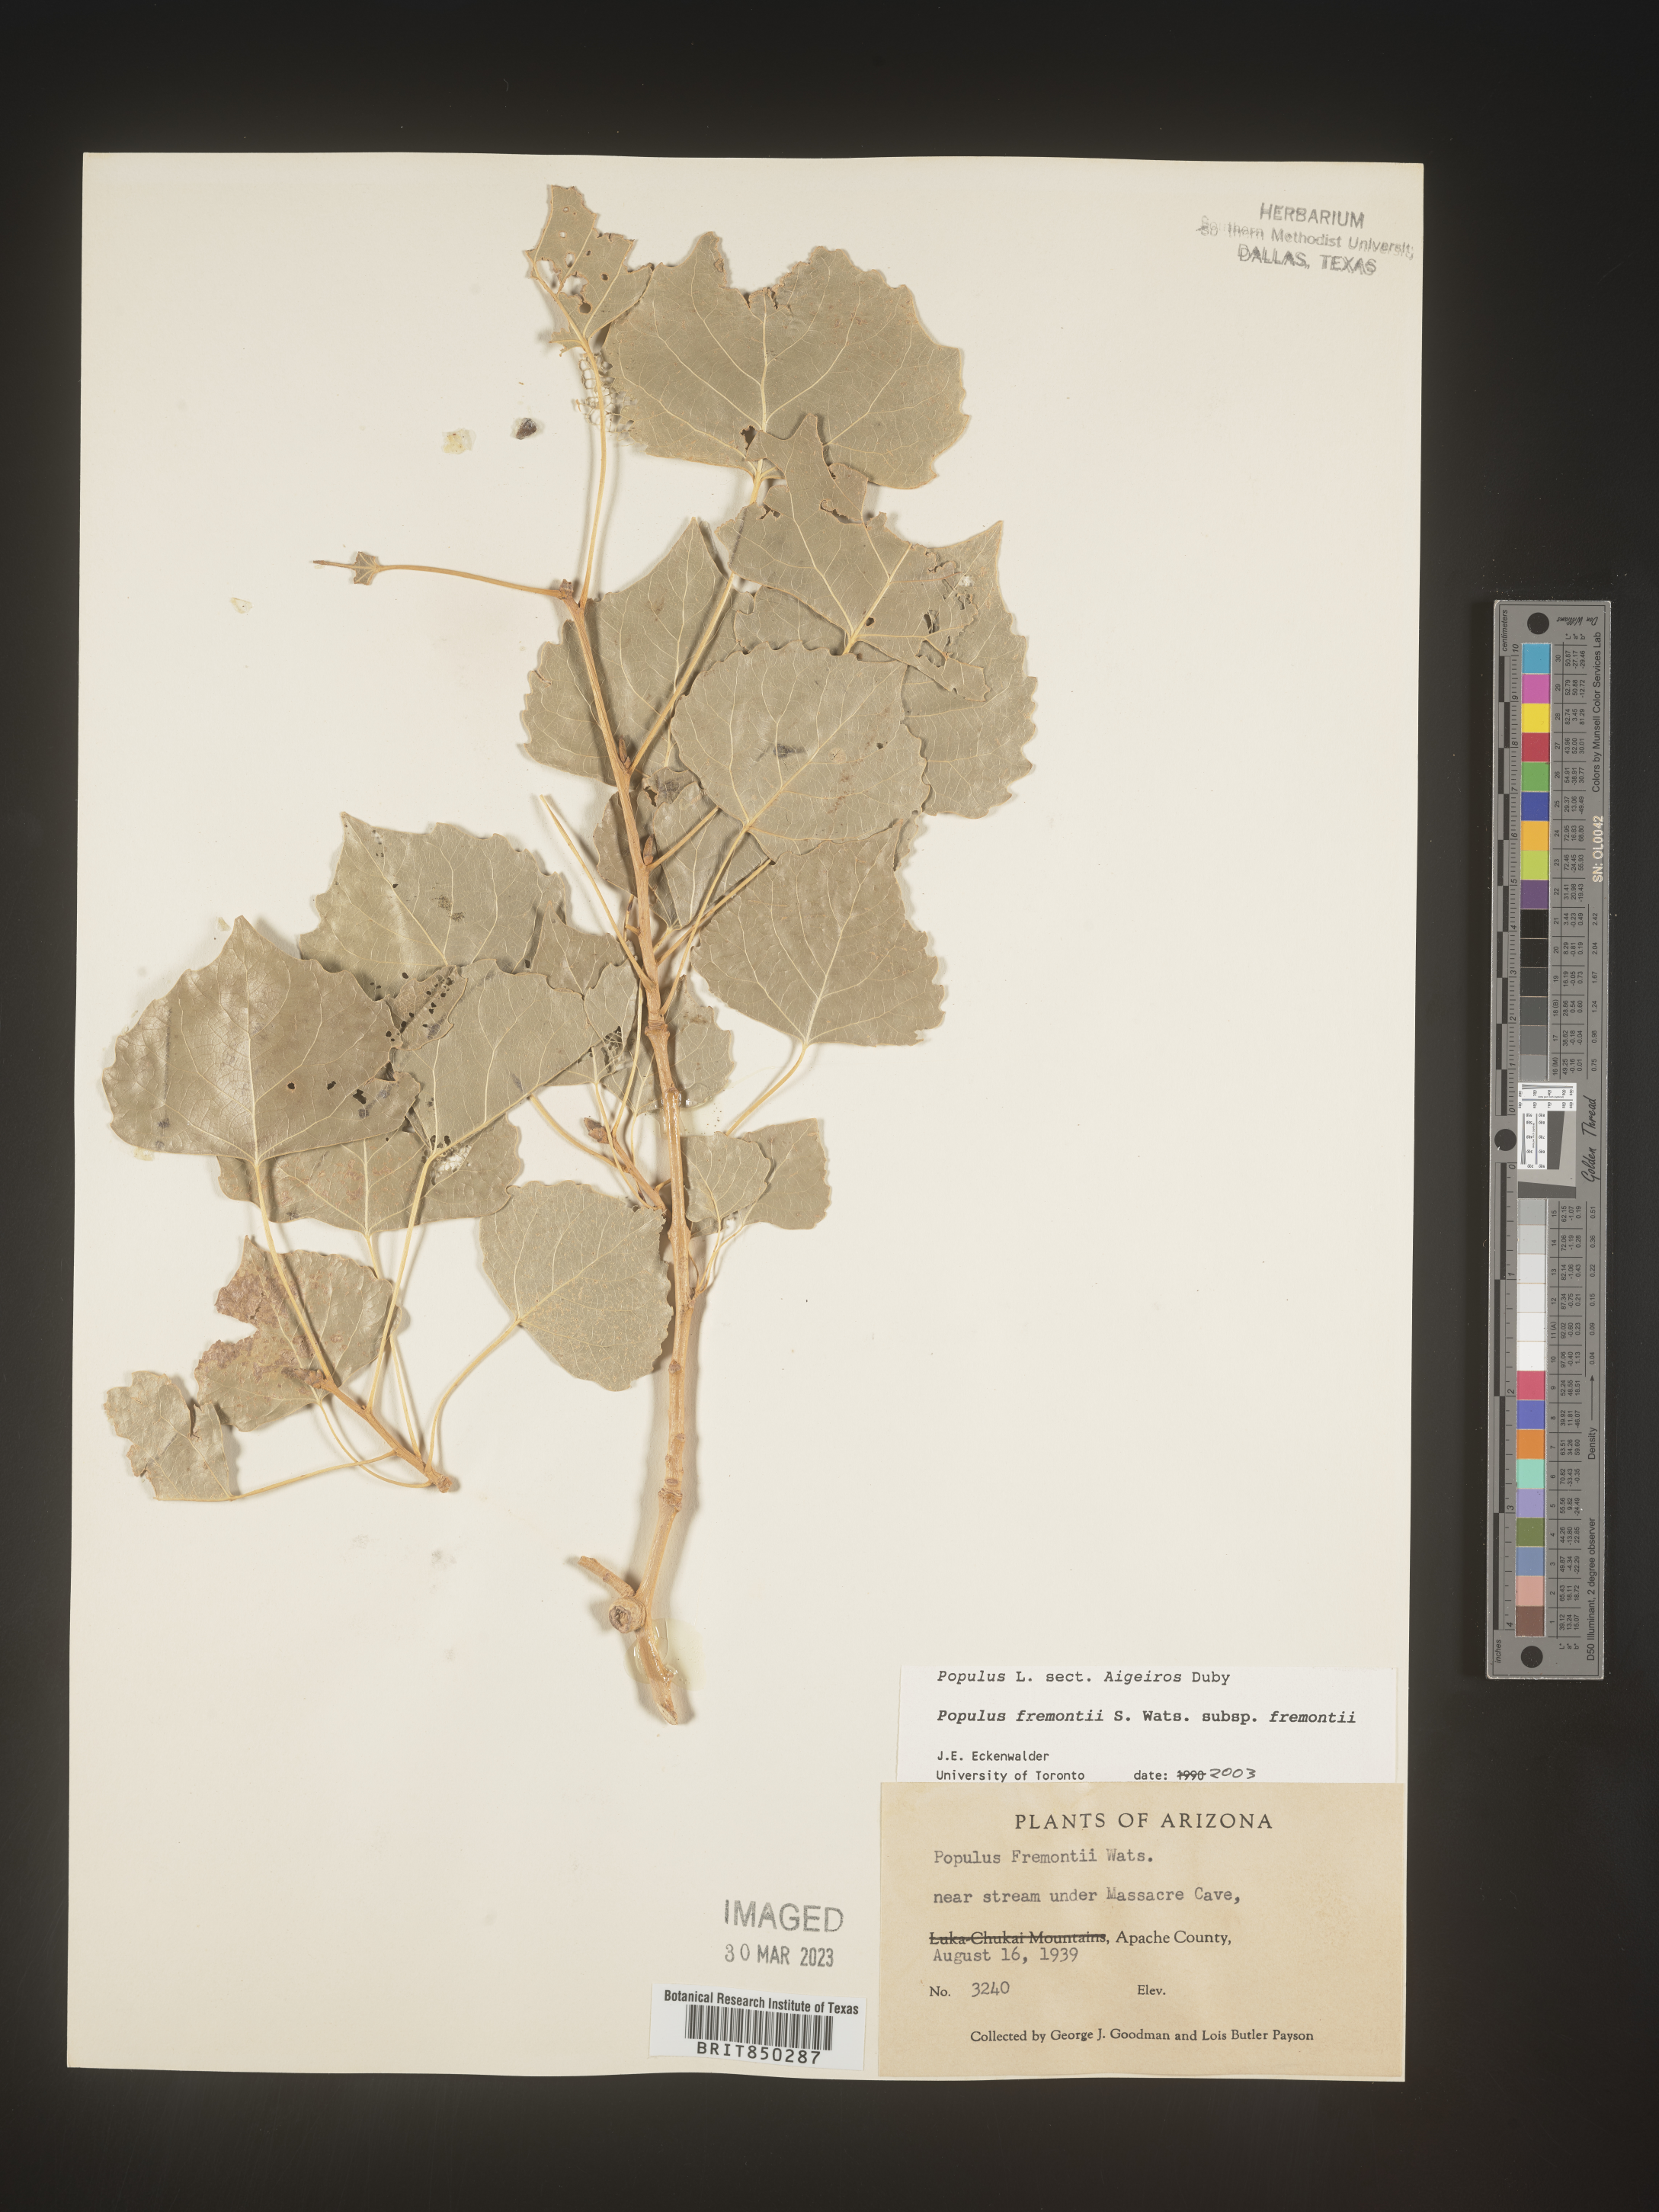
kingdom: Plantae
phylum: Tracheophyta
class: Magnoliopsida
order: Malpighiales
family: Salicaceae
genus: Populus
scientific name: Populus fremontii
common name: Fremont's cottonwood
